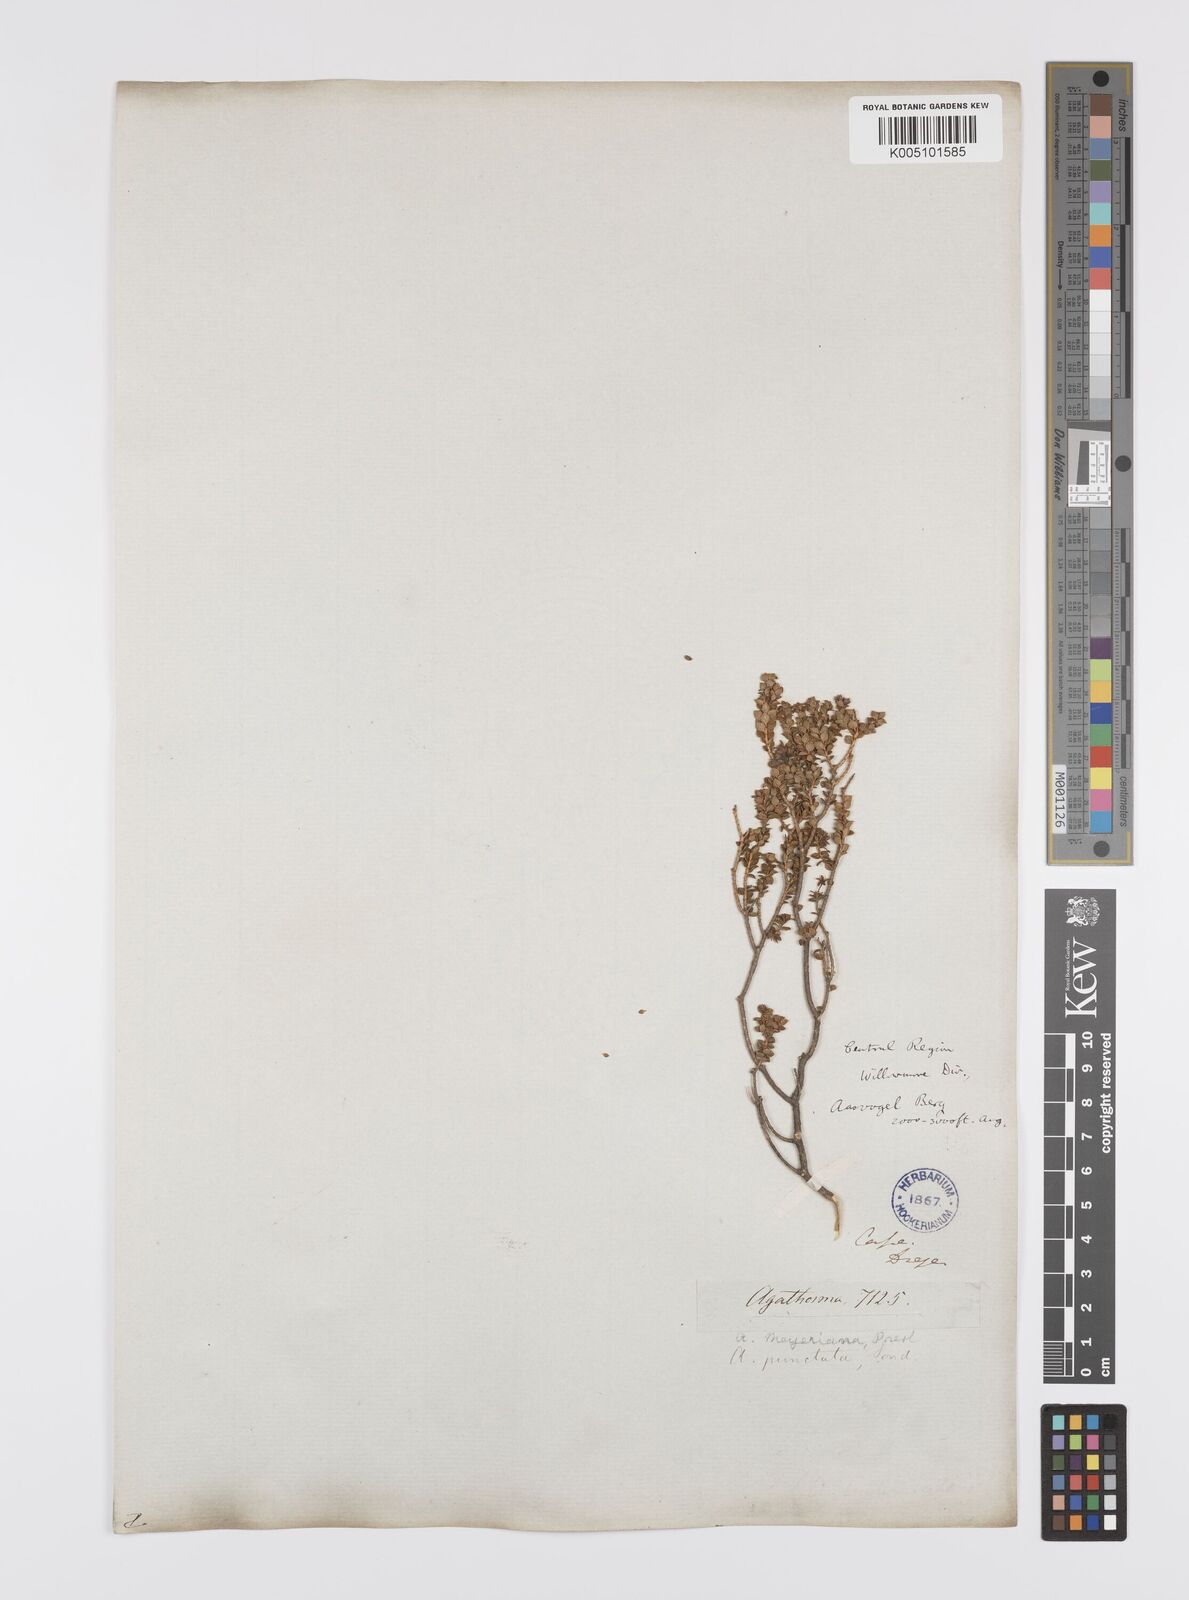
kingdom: Plantae
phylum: Tracheophyta
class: Magnoliopsida
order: Sapindales
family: Rutaceae
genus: Agathosma
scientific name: Agathosma ovalifolia
